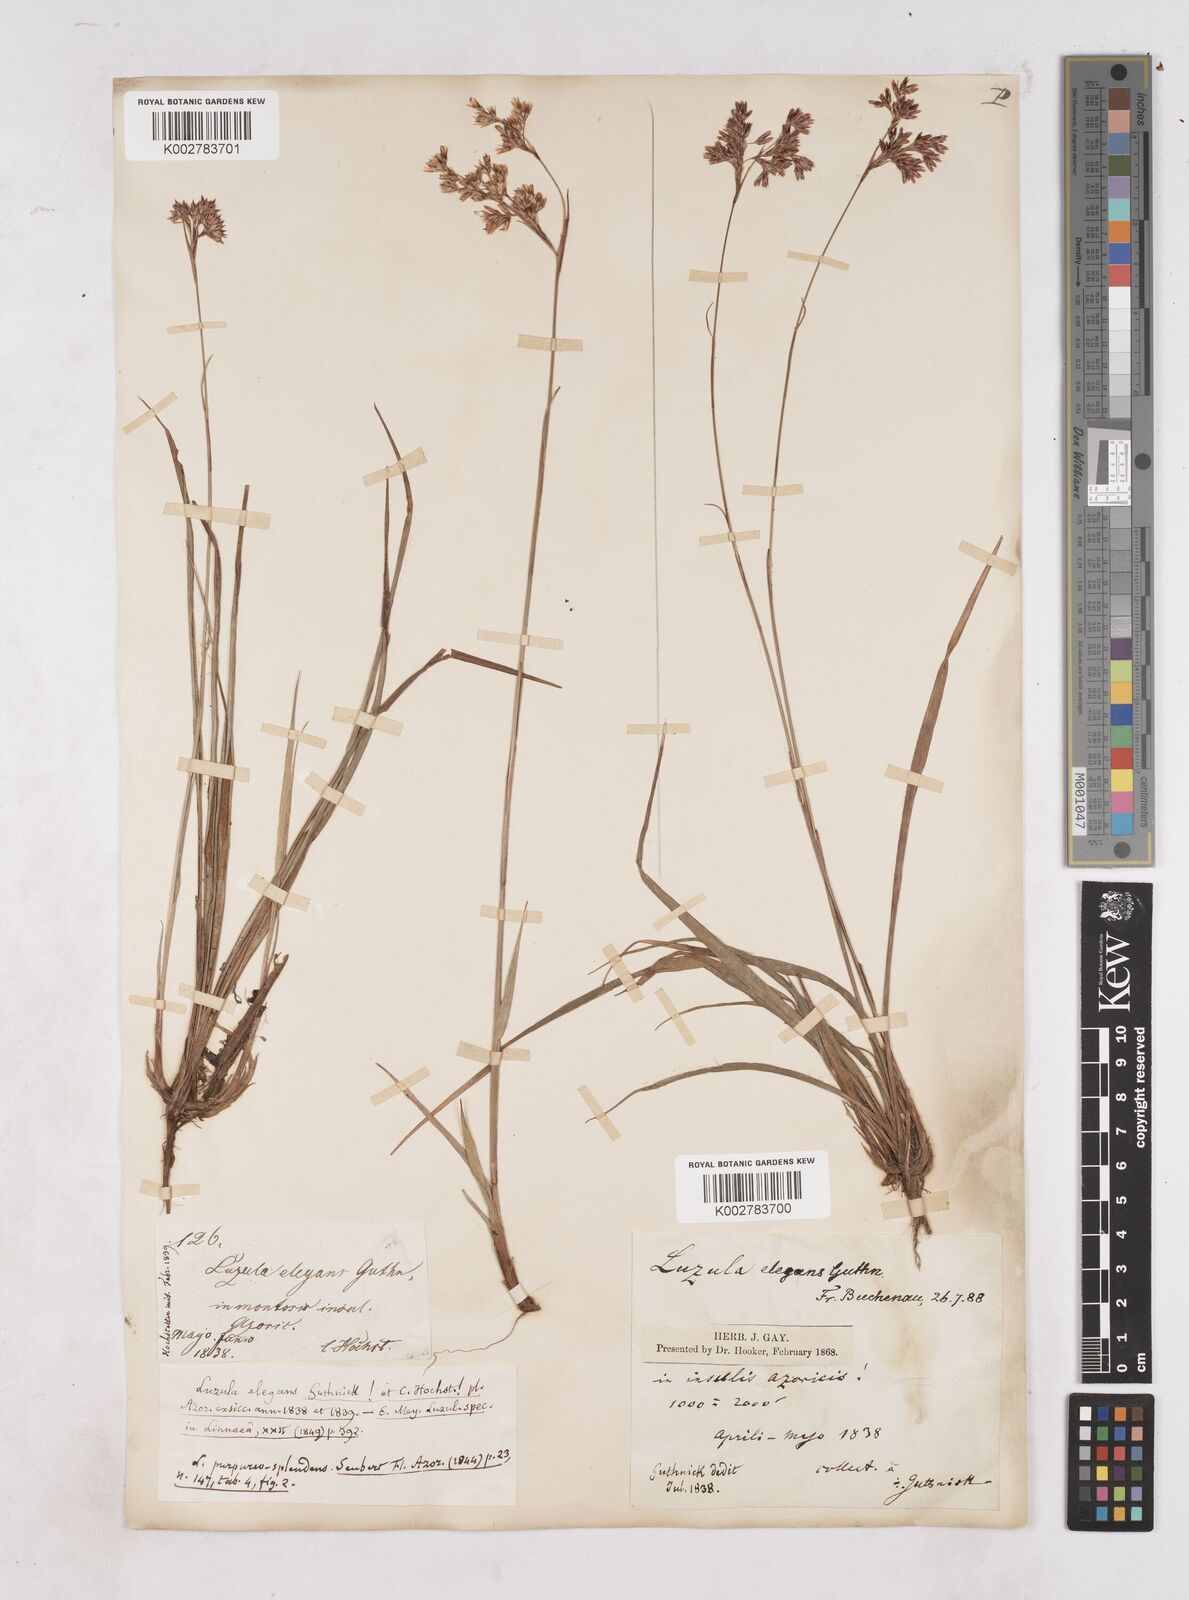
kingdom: Plantae
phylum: Tracheophyta
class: Liliopsida
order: Poales
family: Juncaceae
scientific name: Juncaceae
